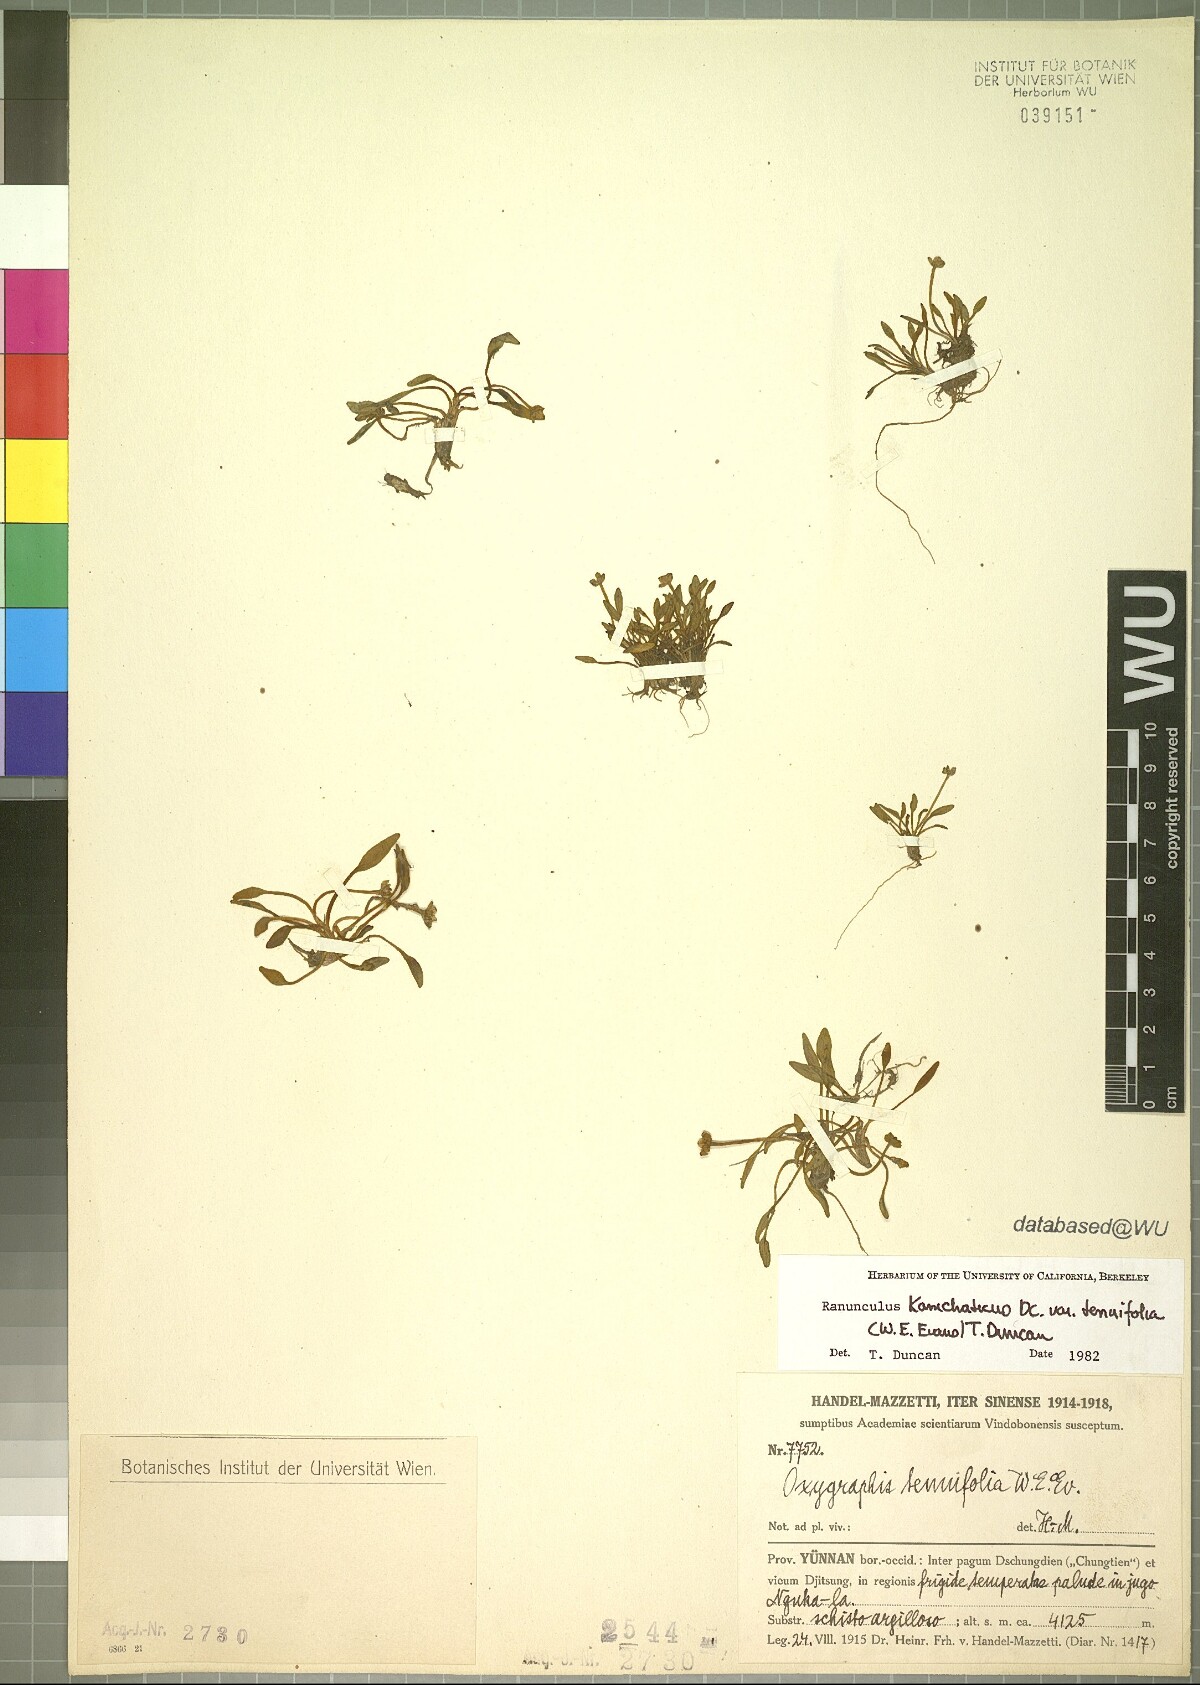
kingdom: Plantae
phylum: Tracheophyta
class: Magnoliopsida
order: Ranunculales
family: Ranunculaceae
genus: Oxygraphis
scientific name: Oxygraphis tenuifolia
